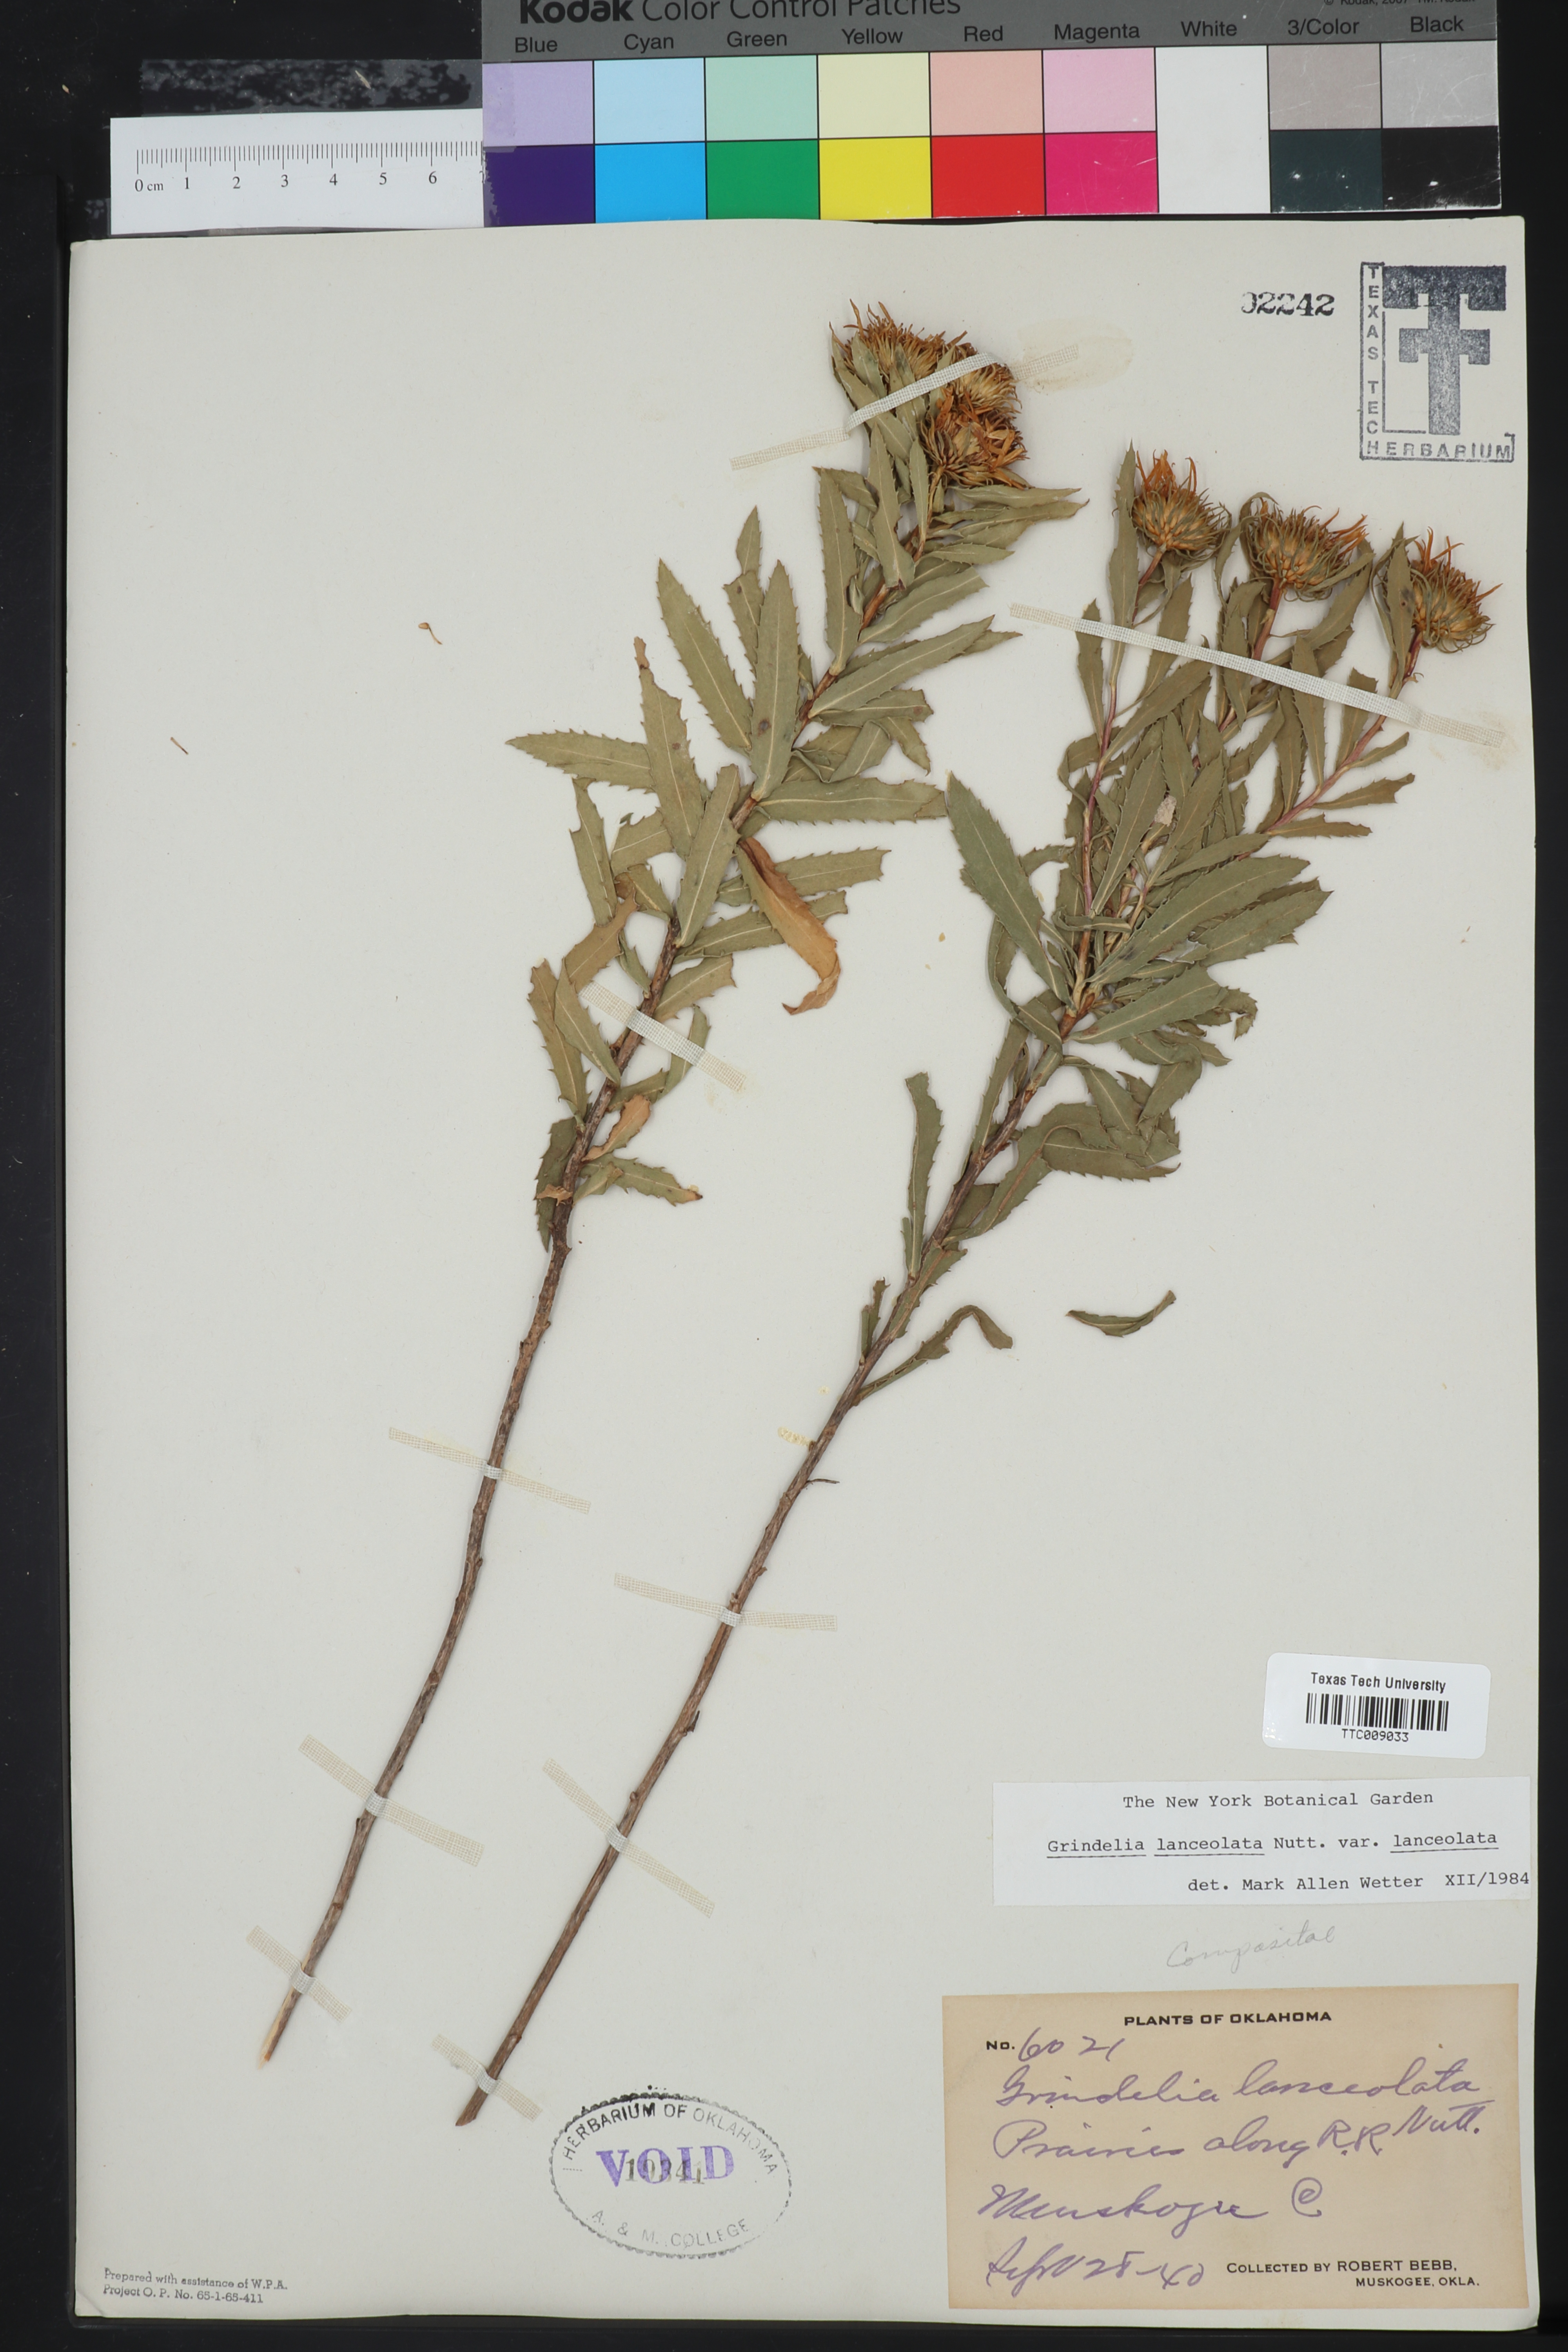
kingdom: Plantae
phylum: Tracheophyta
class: Magnoliopsida
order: Asterales
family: Asteraceae
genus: Grindelia
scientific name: Grindelia lanceolata
